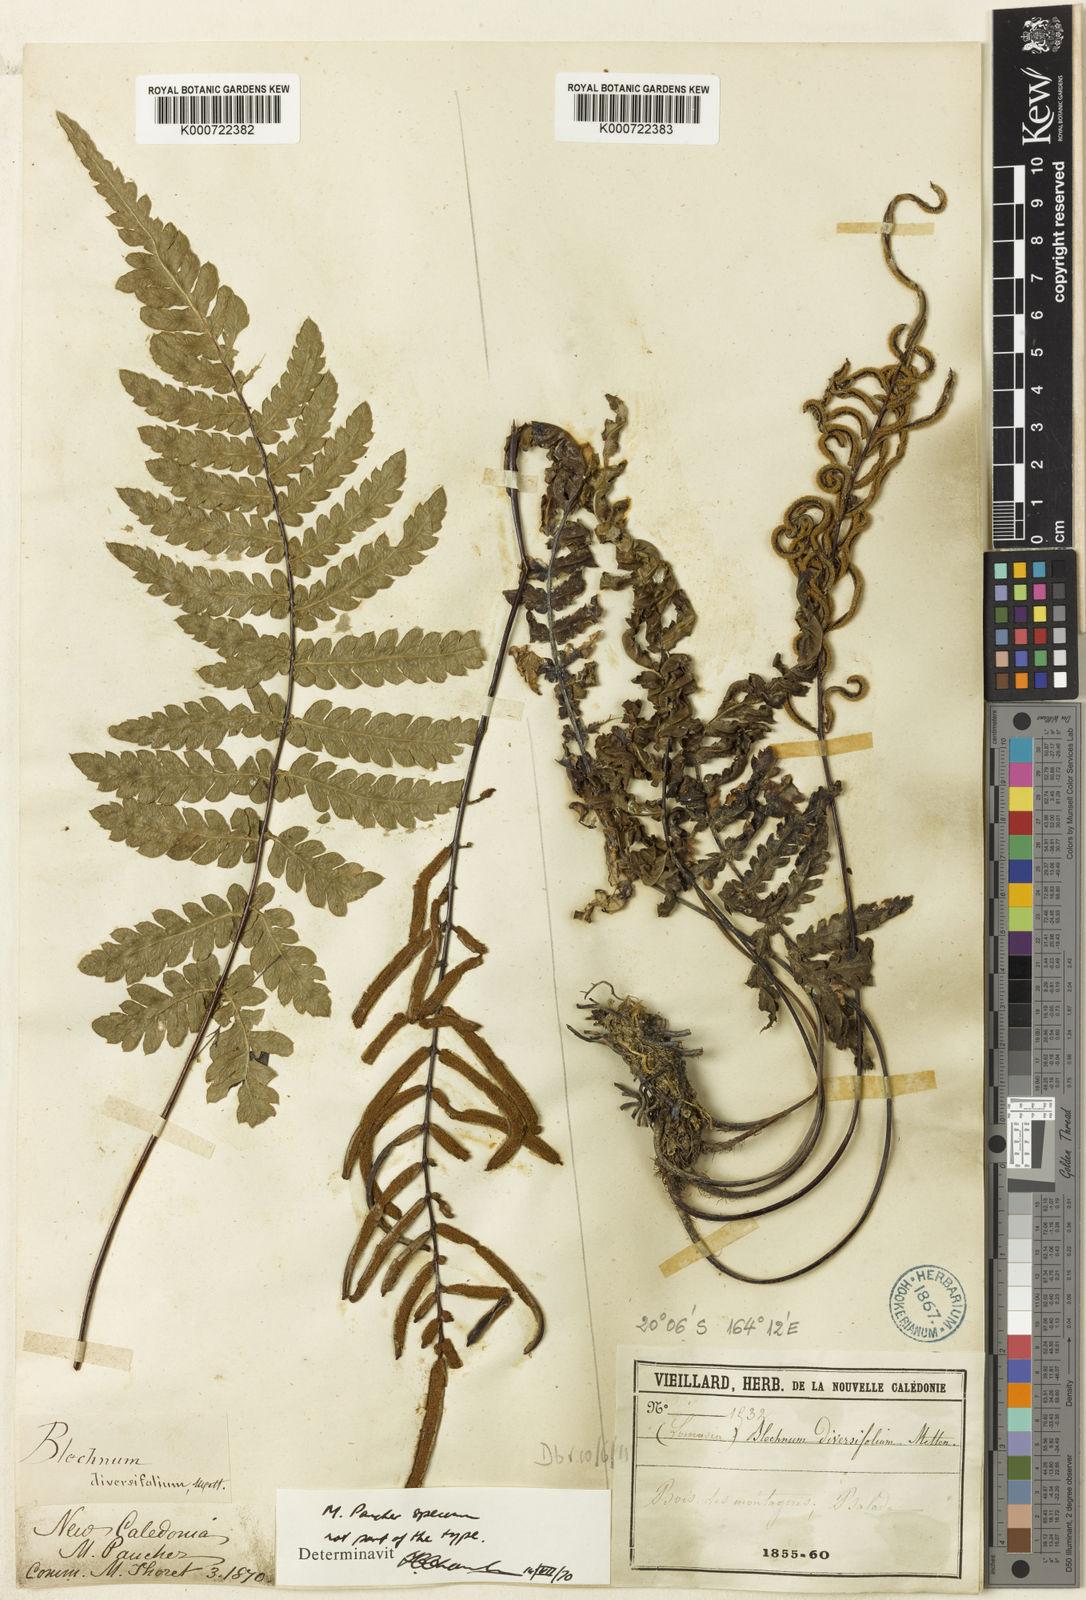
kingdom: Plantae
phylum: Tracheophyta
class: Polypodiopsida
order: Polypodiales
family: Blechnaceae
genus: Diploblechnum
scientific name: Diploblechnum diversifolium
